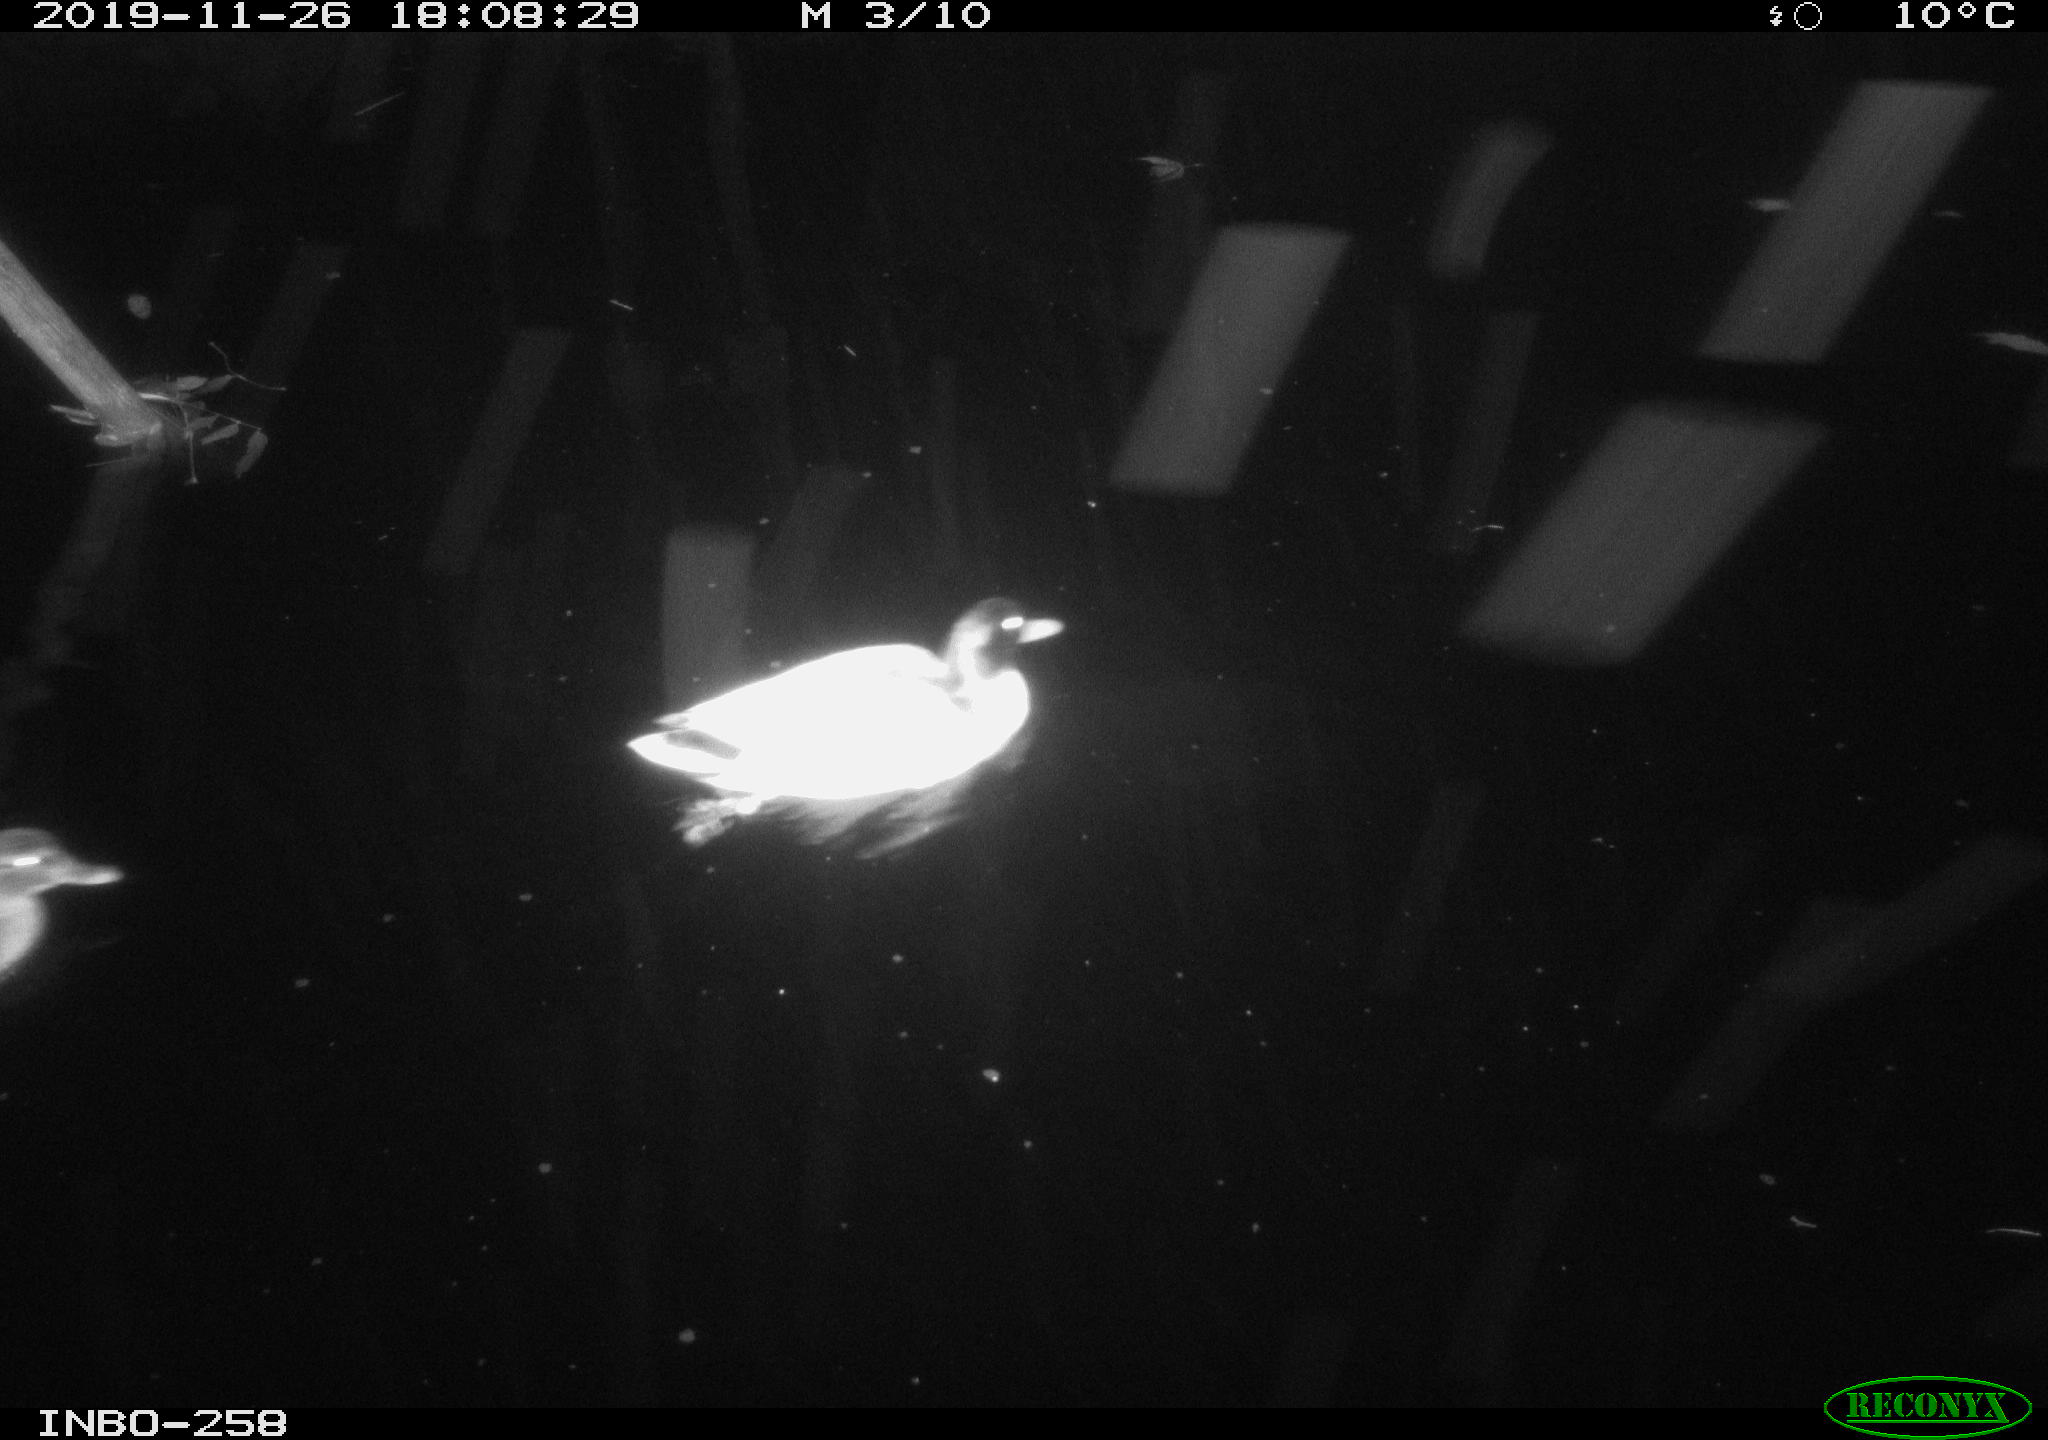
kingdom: Animalia
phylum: Chordata
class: Aves
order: Anseriformes
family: Anatidae
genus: Anas
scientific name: Anas platyrhynchos
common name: Mallard
